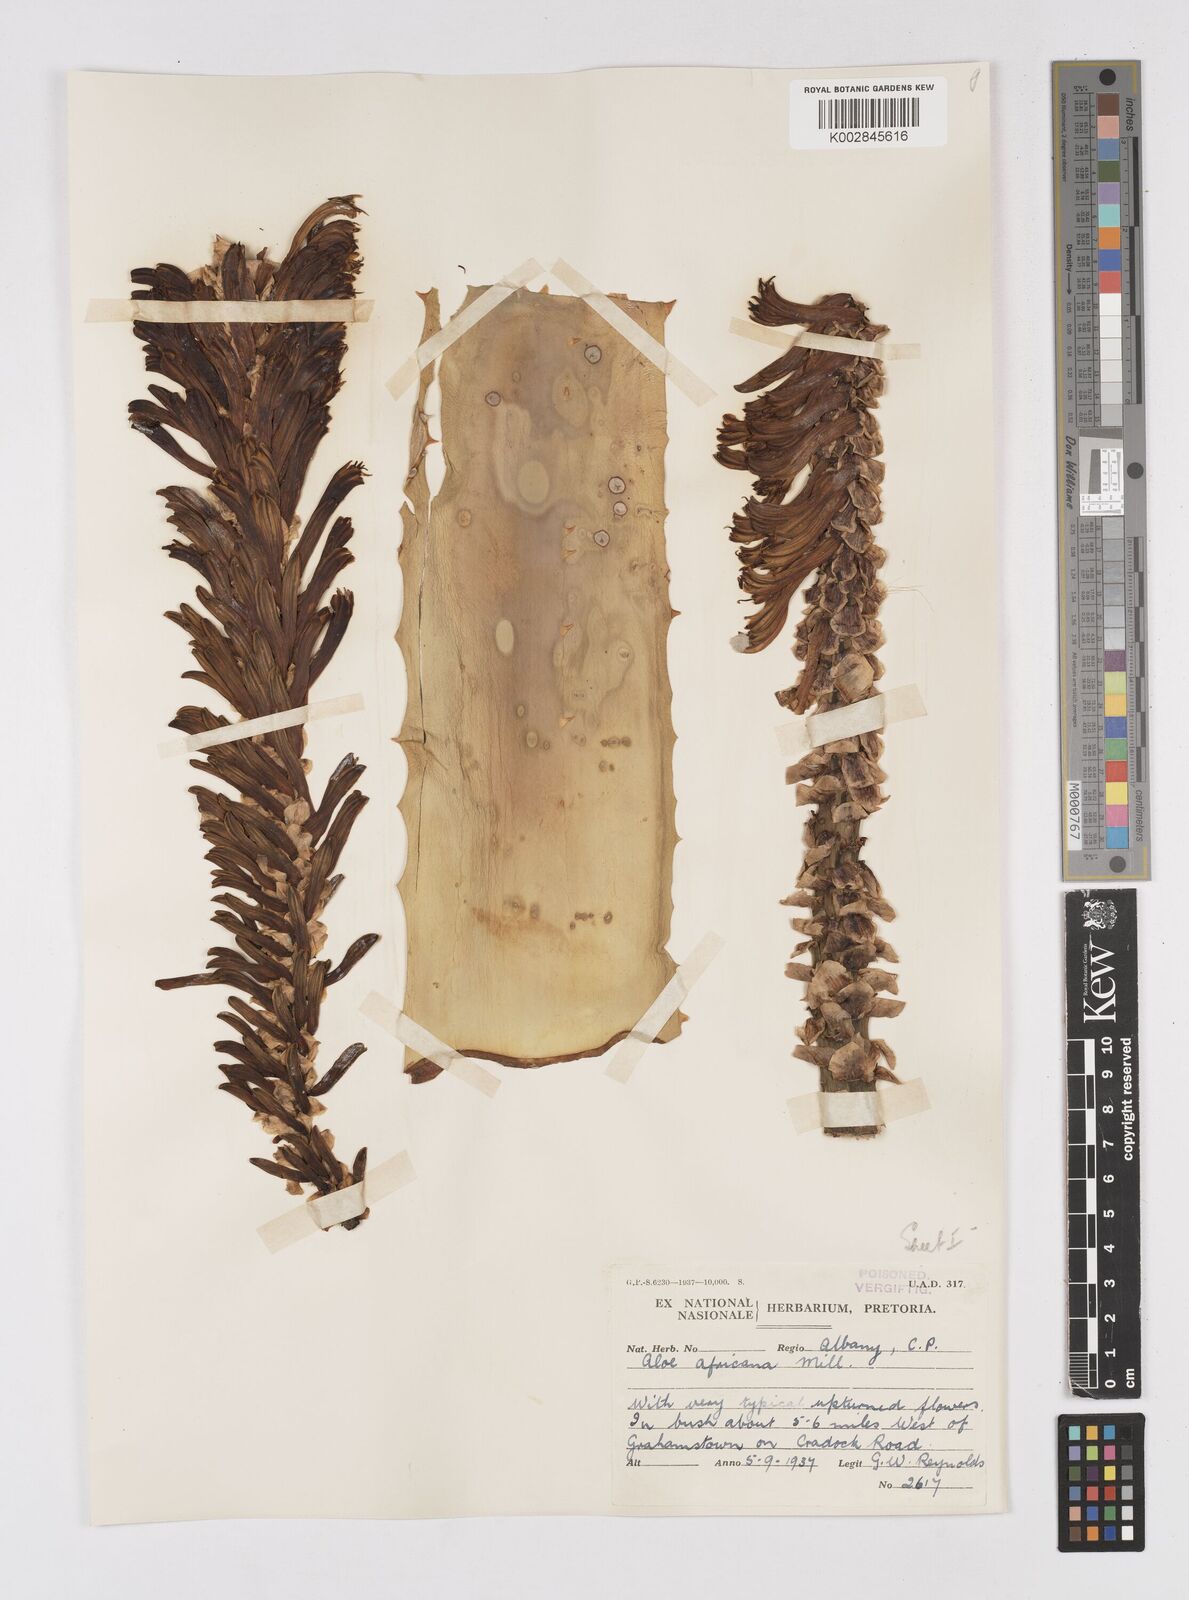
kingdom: Plantae
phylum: Tracheophyta
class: Liliopsida
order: Asparagales
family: Asphodelaceae
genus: Aloe
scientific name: Aloe africana
